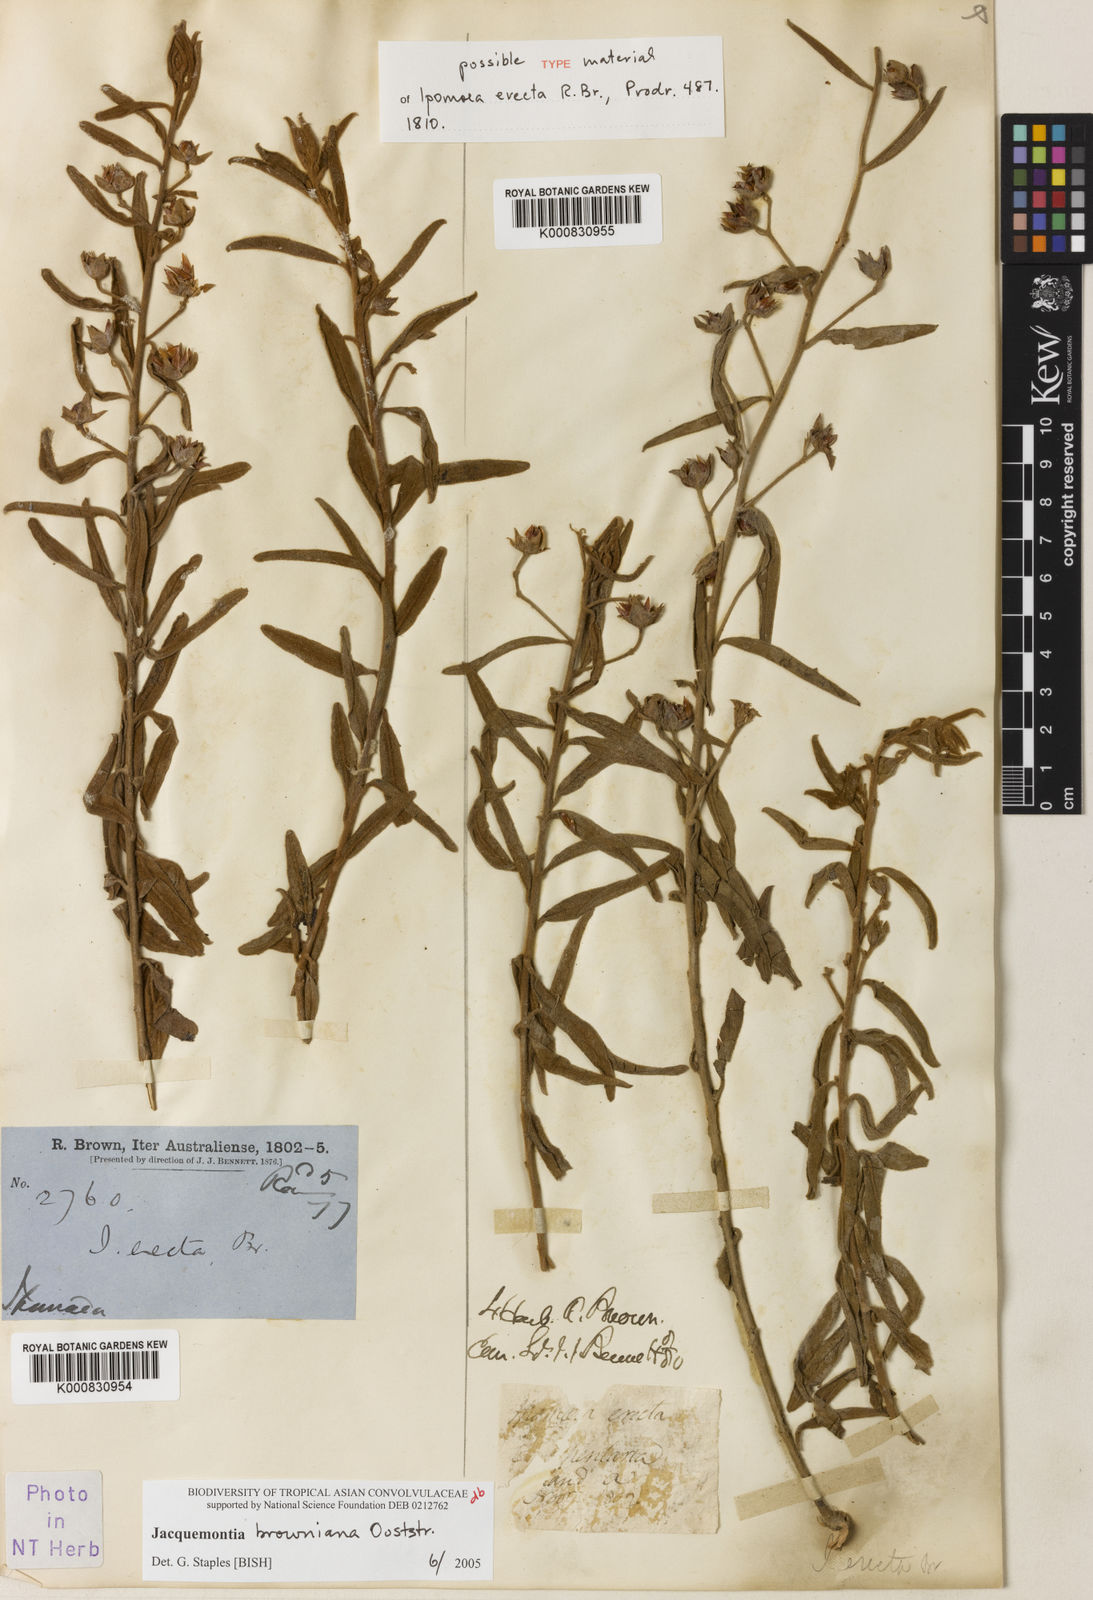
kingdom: Plantae
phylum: Tracheophyta
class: Magnoliopsida
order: Solanales
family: Convolvulaceae
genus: Jacquemontia
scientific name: Jacquemontia browniana
